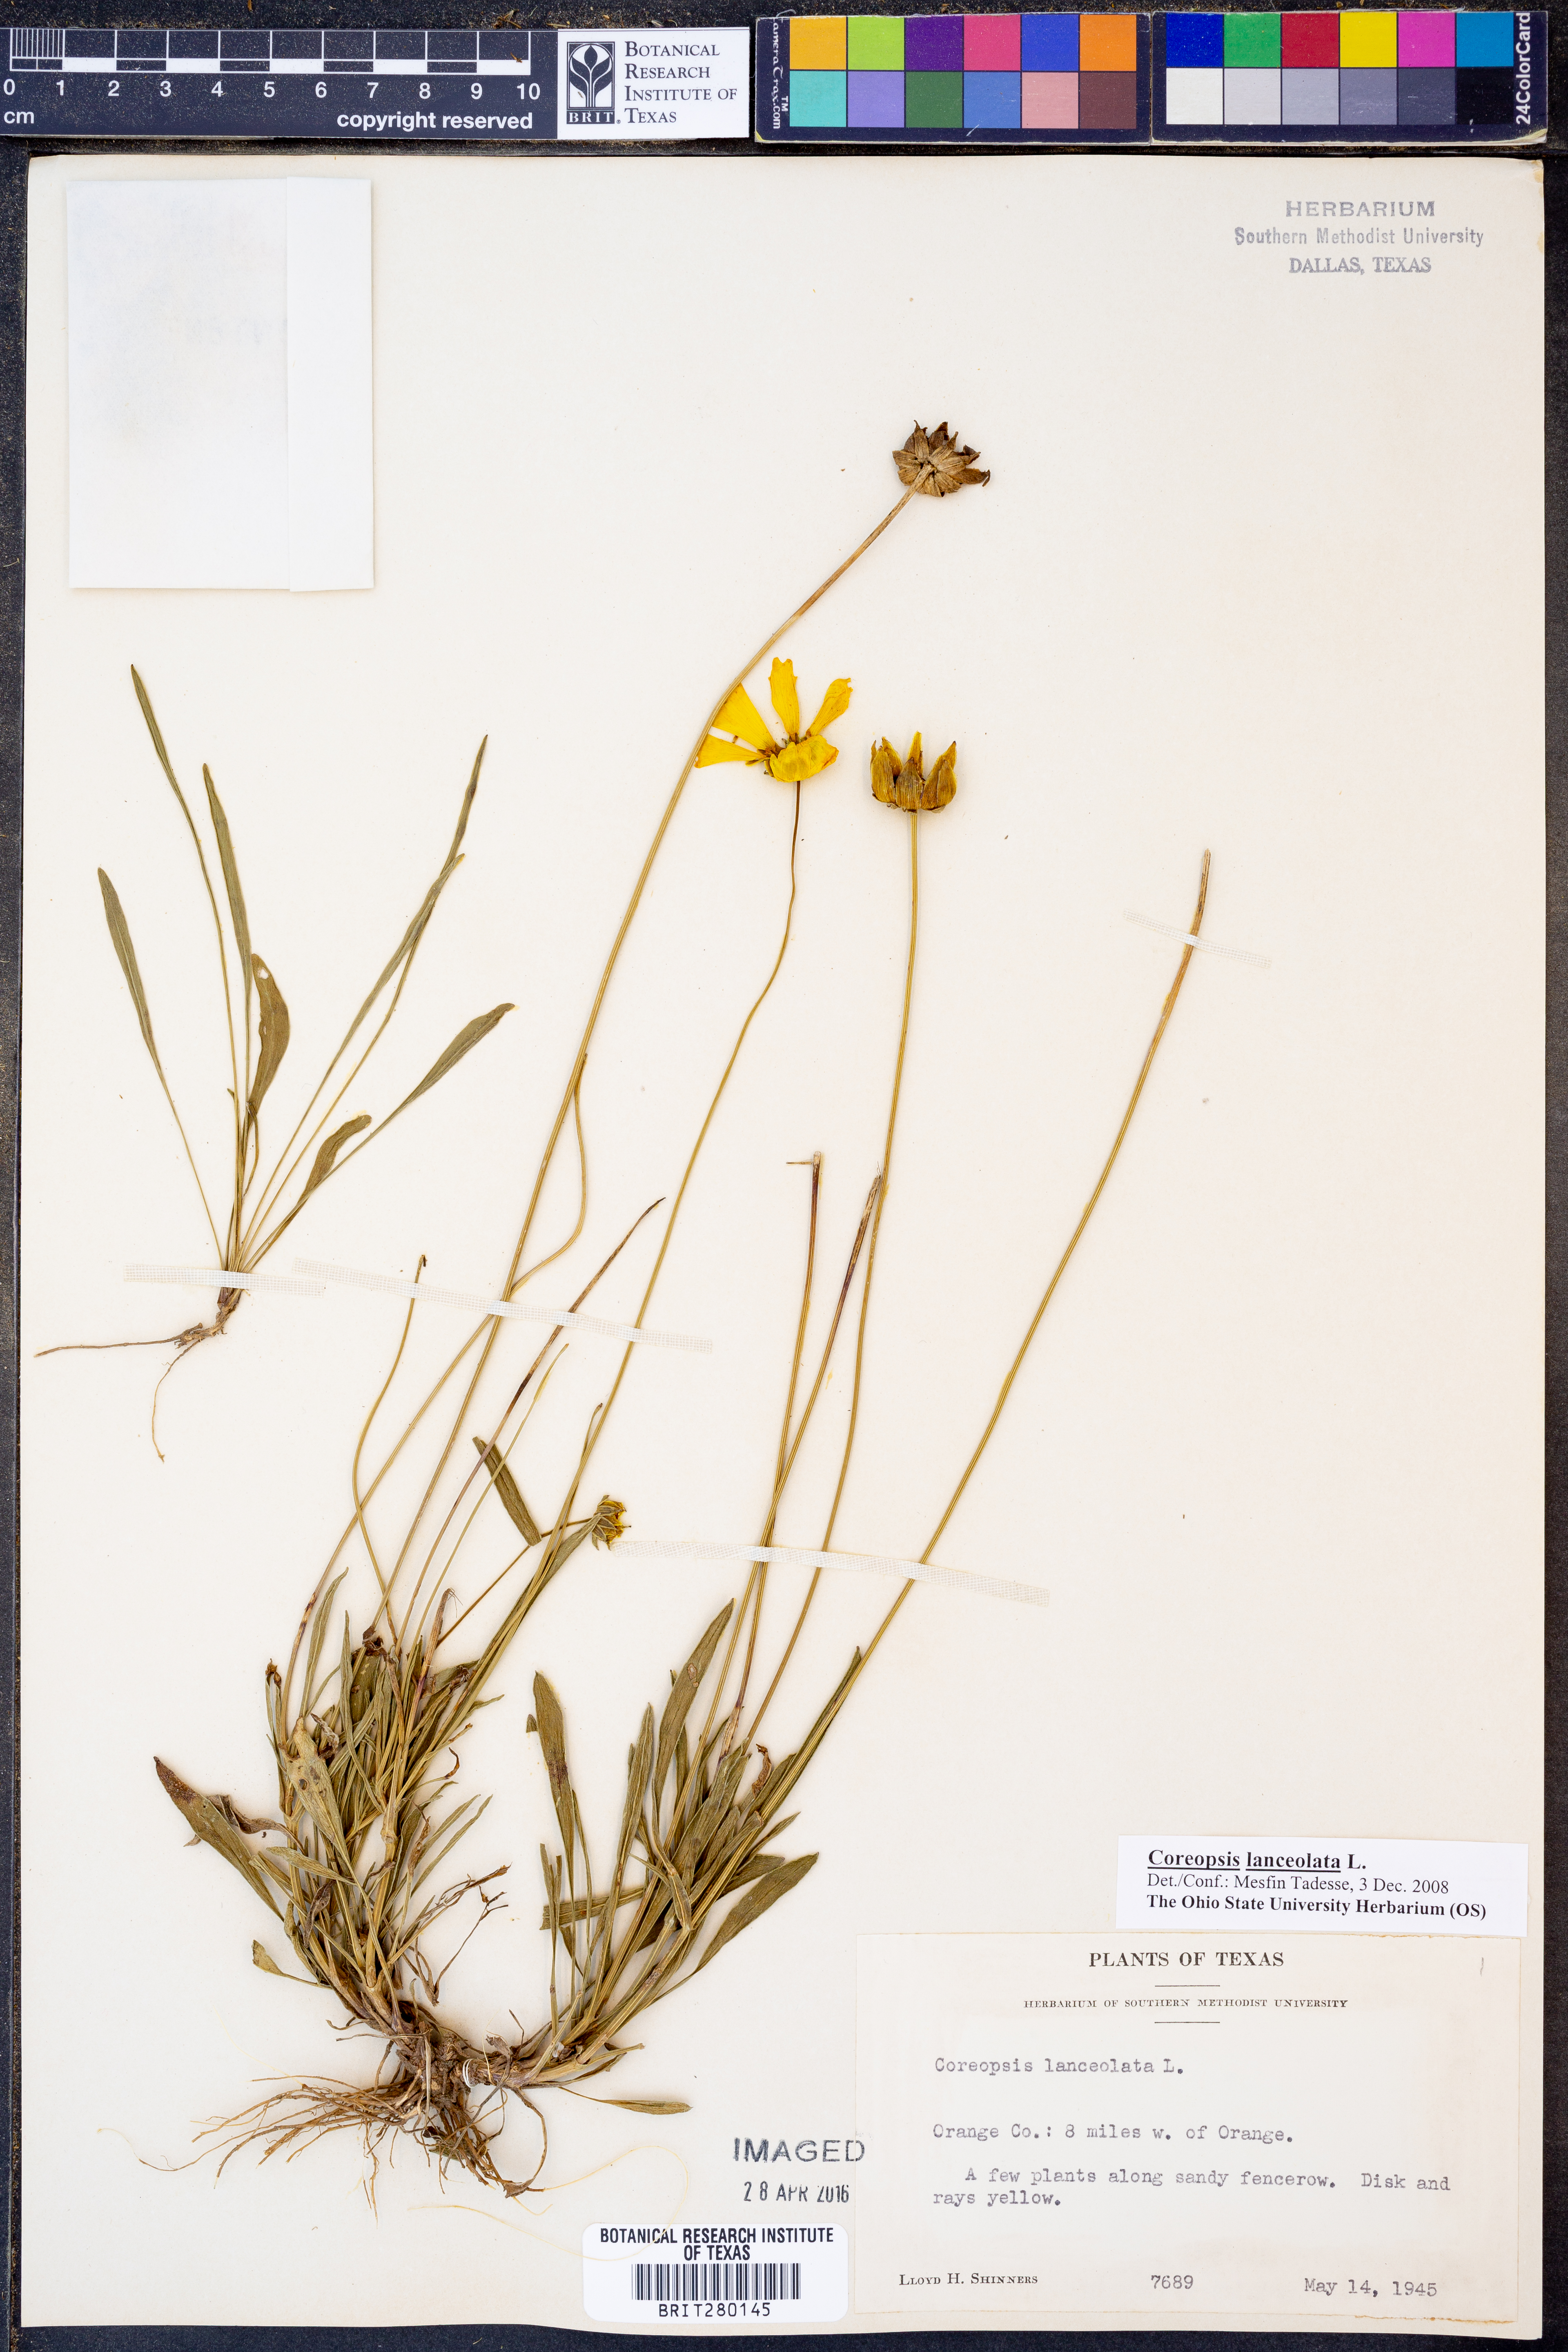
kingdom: Plantae
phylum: Tracheophyta
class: Magnoliopsida
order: Asterales
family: Asteraceae
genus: Coreopsis
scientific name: Coreopsis lanceolata
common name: Garden coreopsis
